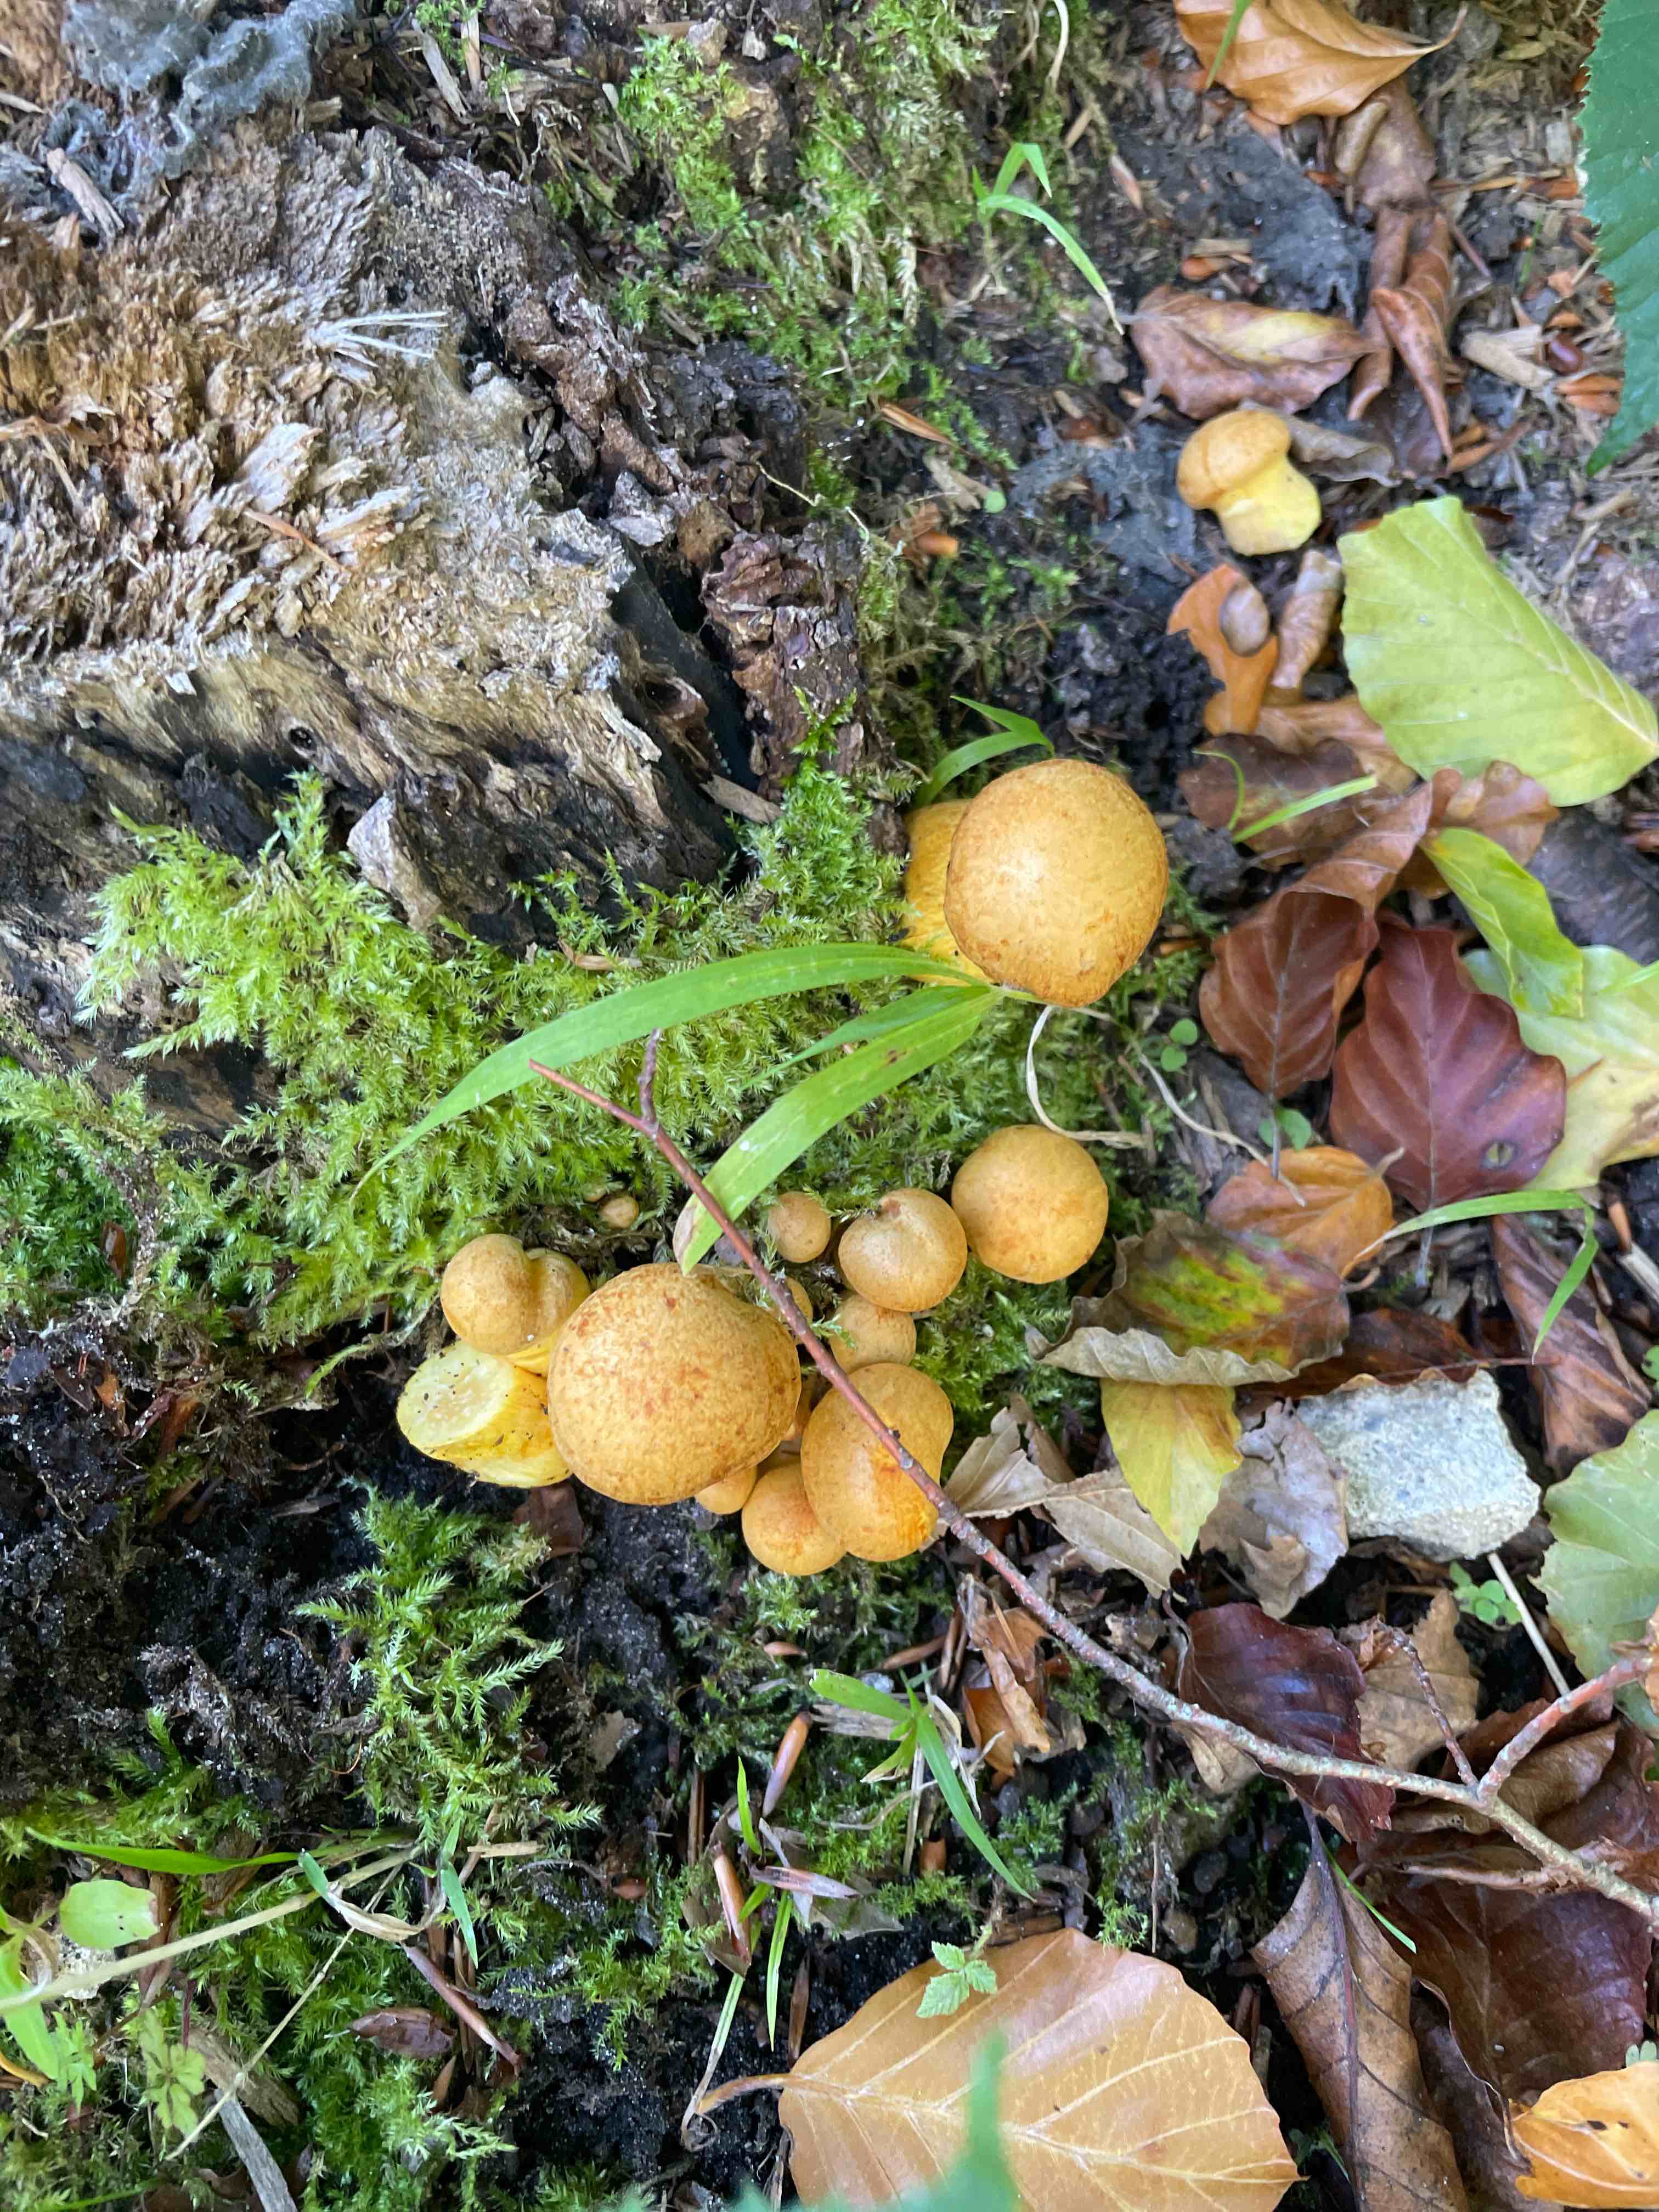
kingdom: Fungi
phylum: Basidiomycota
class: Agaricomycetes
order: Agaricales
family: Hymenogastraceae
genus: Gymnopilus
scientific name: Gymnopilus spectabilis
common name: fibret flammehat
